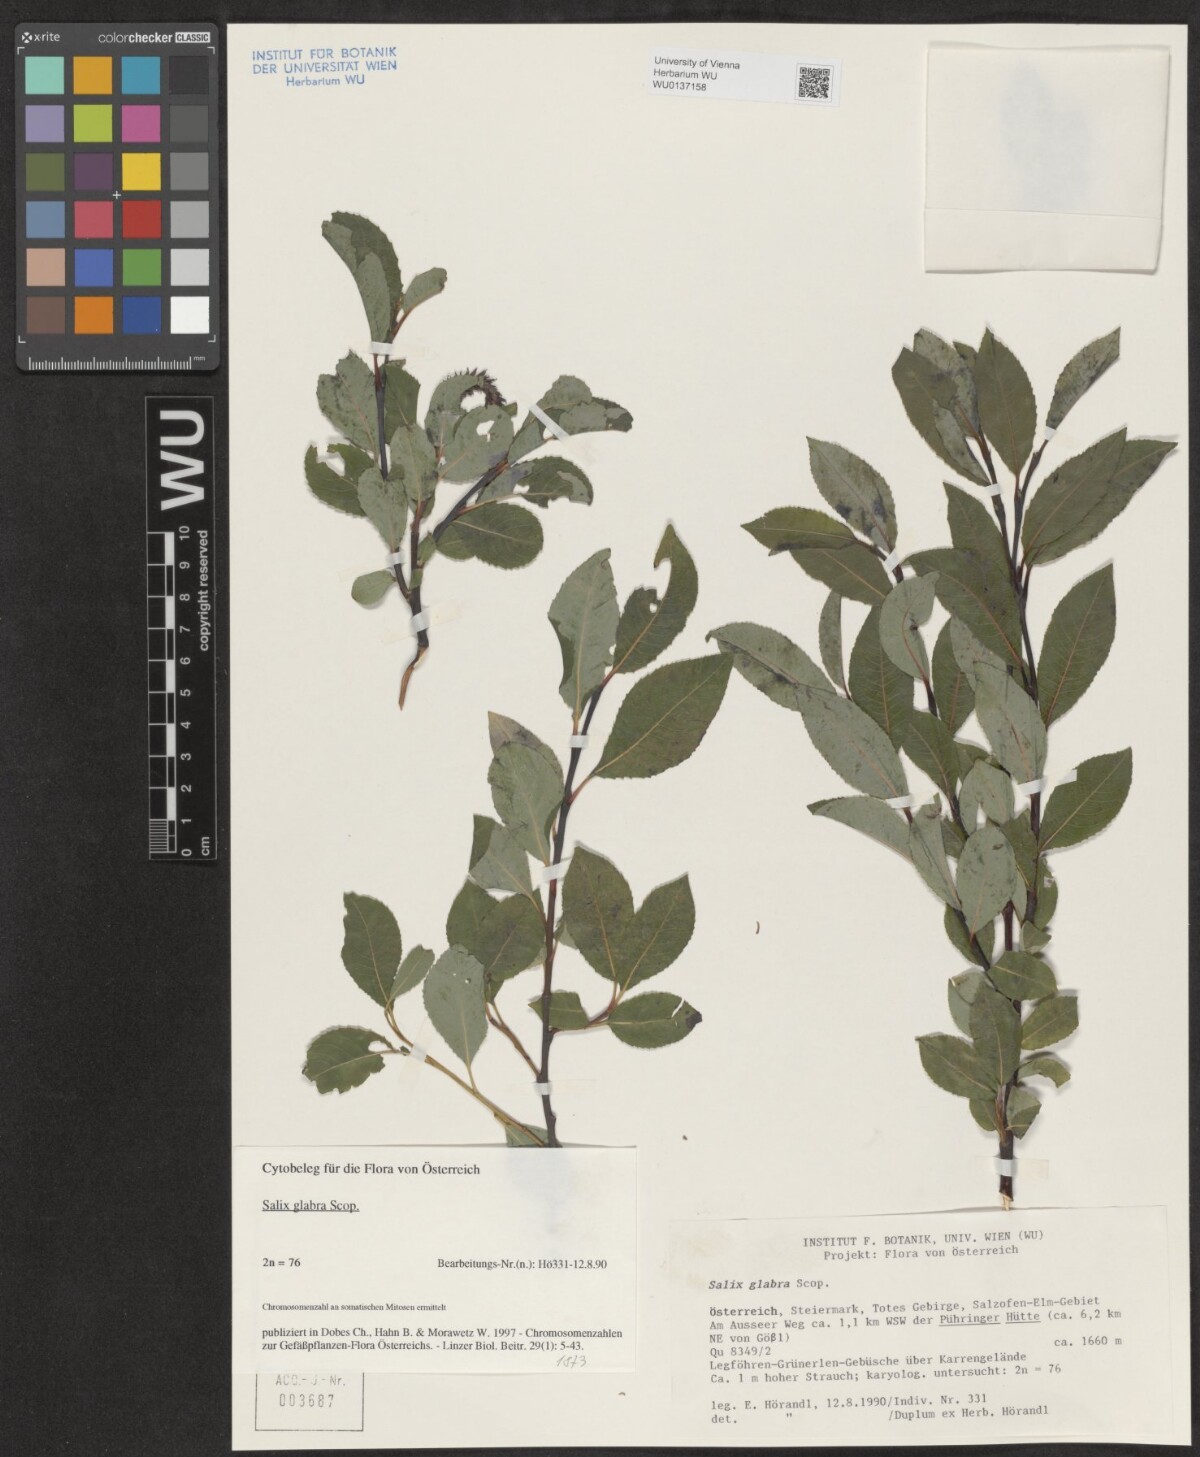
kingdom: Plantae
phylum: Tracheophyta
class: Magnoliopsida
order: Malpighiales
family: Salicaceae
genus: Salix
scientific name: Salix glabra
